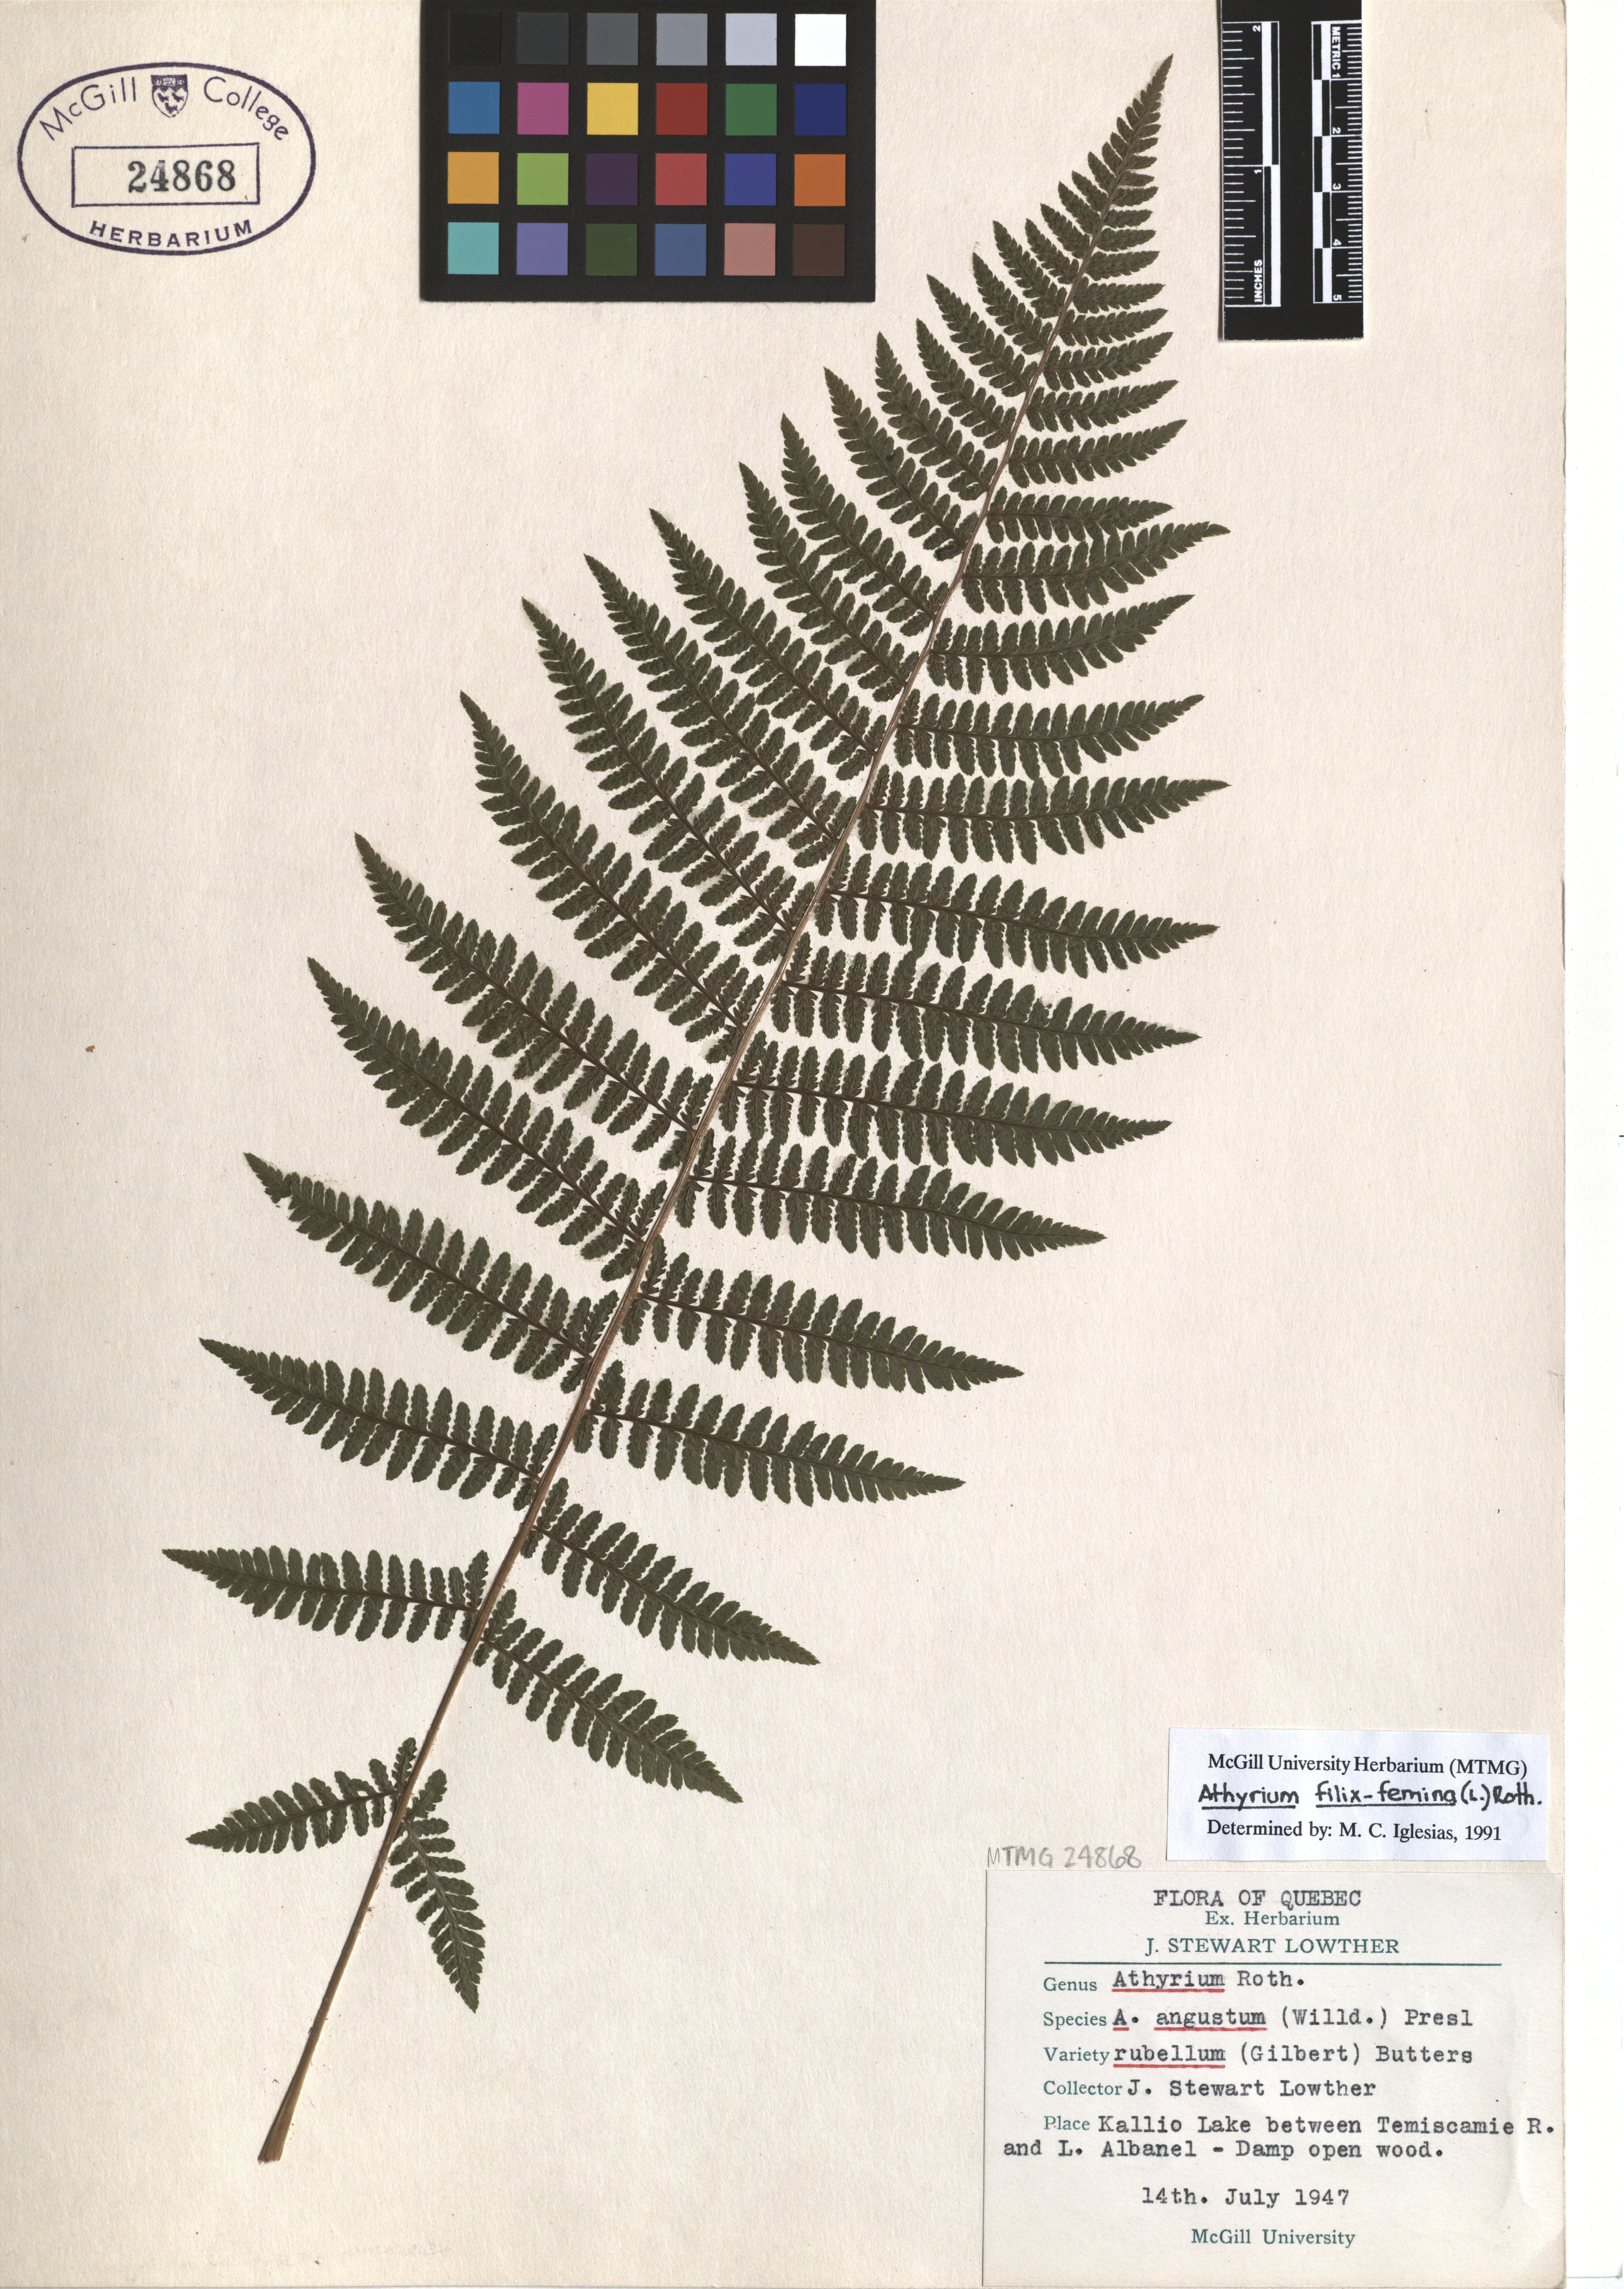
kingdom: Plantae
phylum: Tracheophyta
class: Polypodiopsida
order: Polypodiales
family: Athyriaceae
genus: Athyrium
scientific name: Athyrium filix-femina
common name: Lady fern
